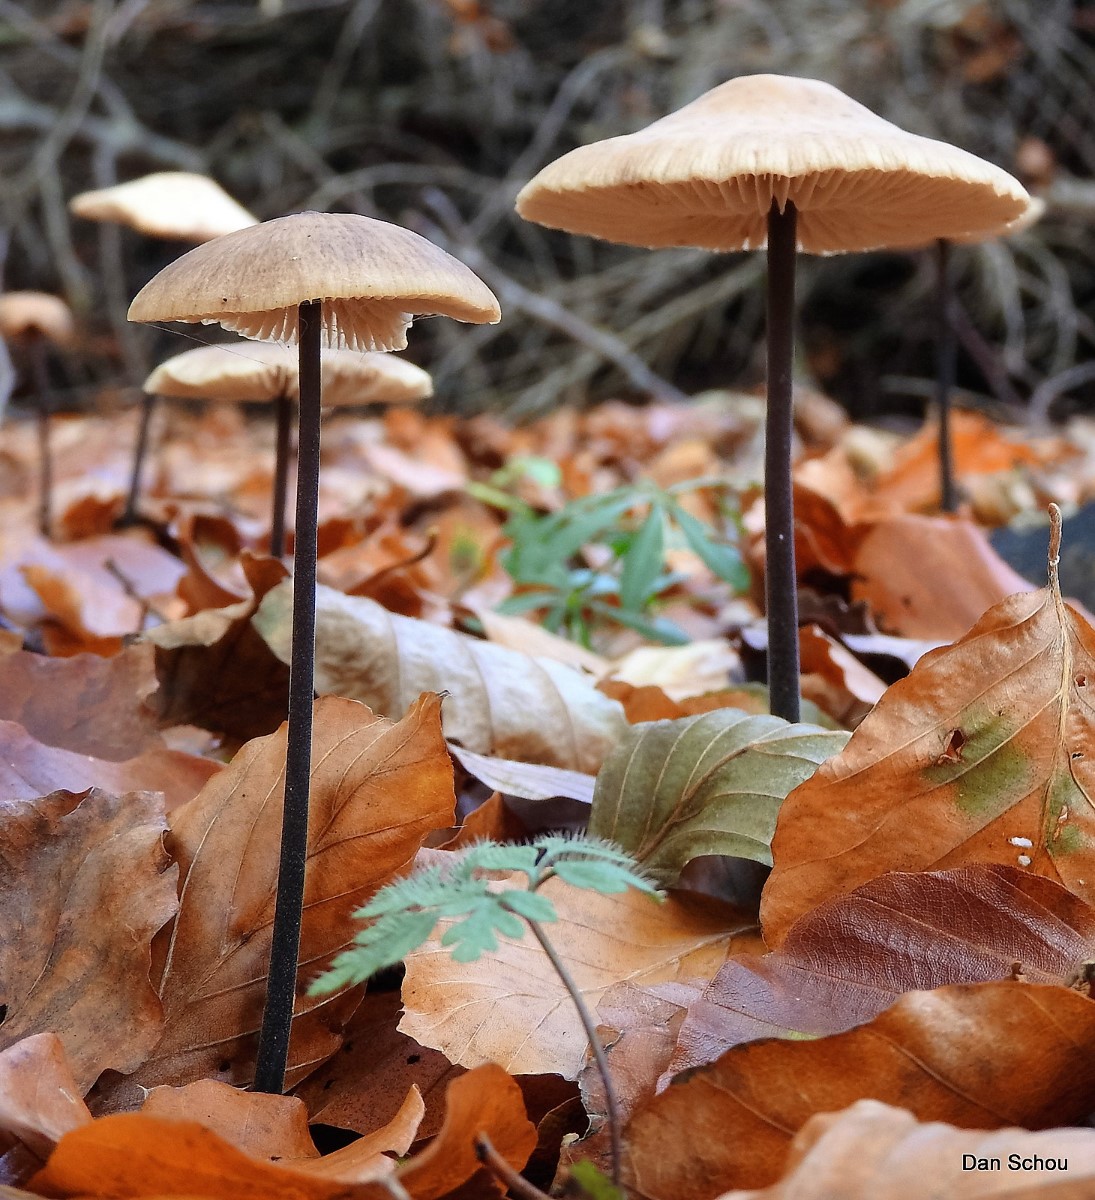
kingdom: Fungi
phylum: Basidiomycota
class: Agaricomycetes
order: Agaricales
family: Omphalotaceae
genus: Mycetinis
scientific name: Mycetinis alliaceus
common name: stor løghat
